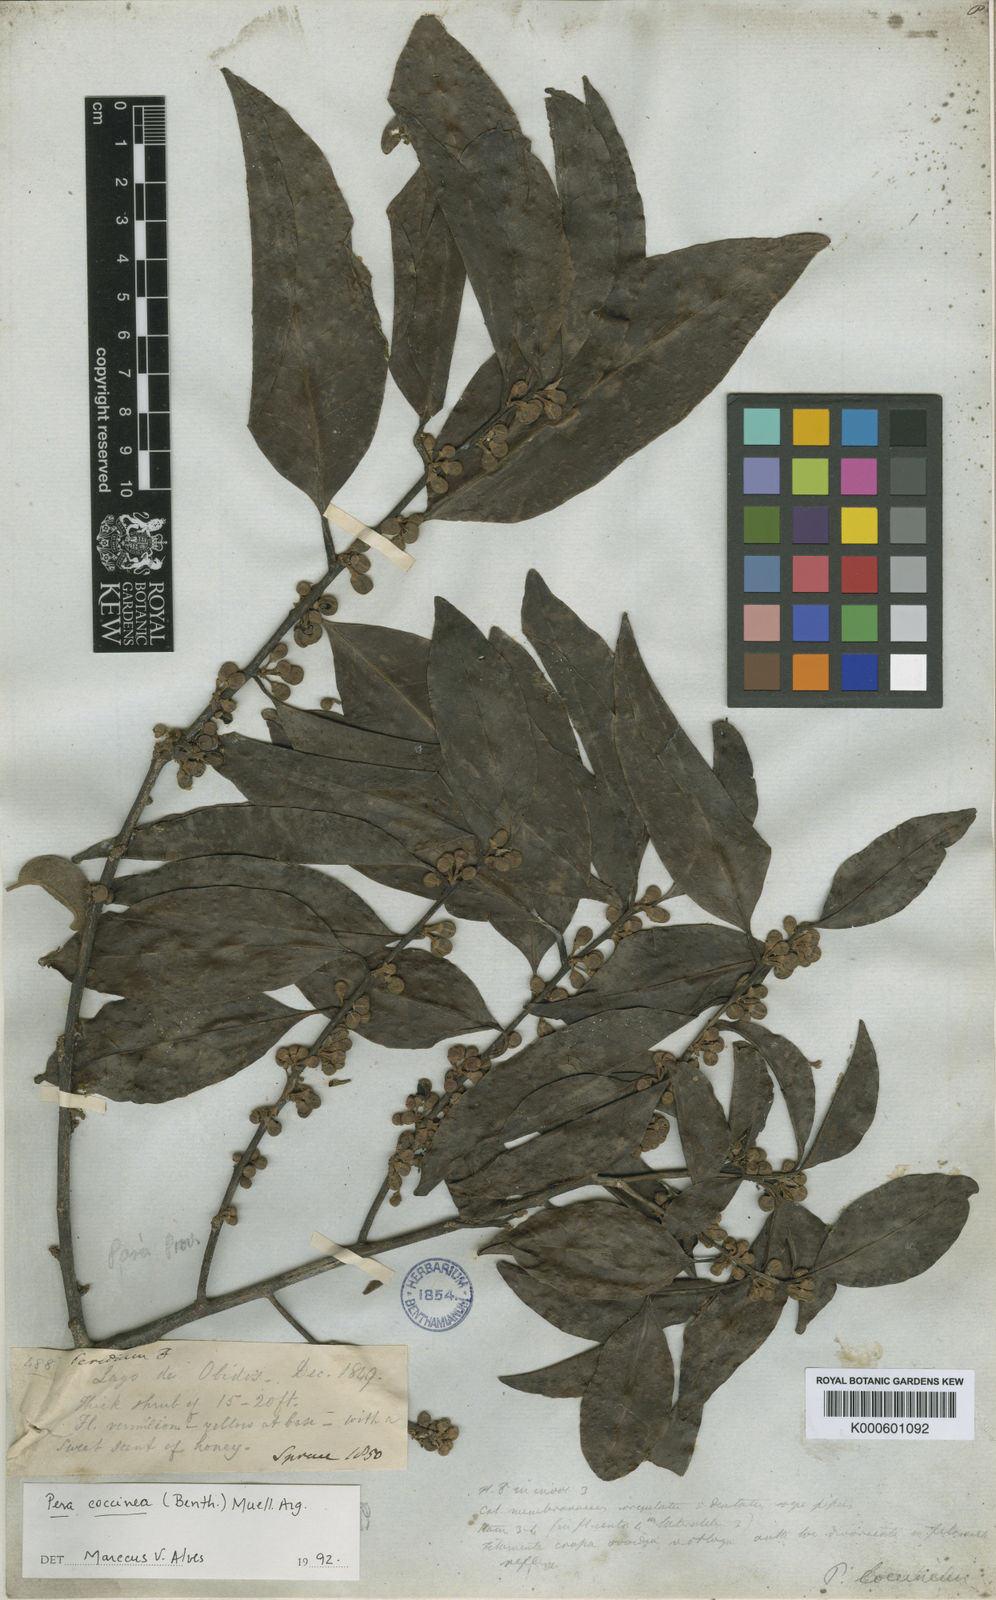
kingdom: Plantae
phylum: Tracheophyta
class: Magnoliopsida
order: Malpighiales
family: Peraceae
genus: Pera
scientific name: Pera
